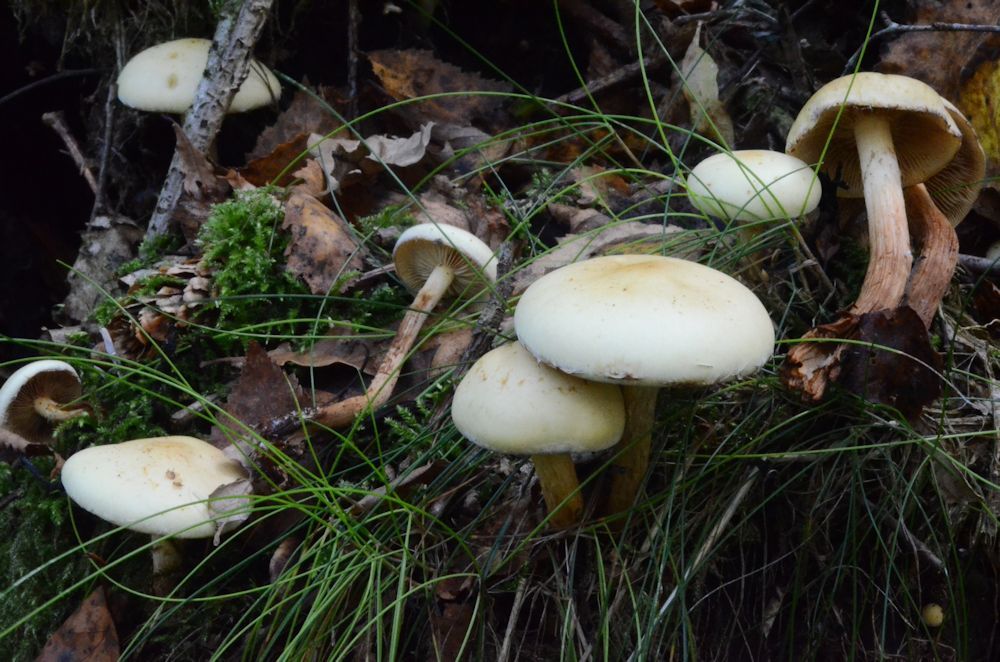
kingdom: Fungi
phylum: Basidiomycota
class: Agaricomycetes
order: Agaricales
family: Strophariaceae
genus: Hypholoma
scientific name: Hypholoma capnoides
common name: gran-svovlhat
